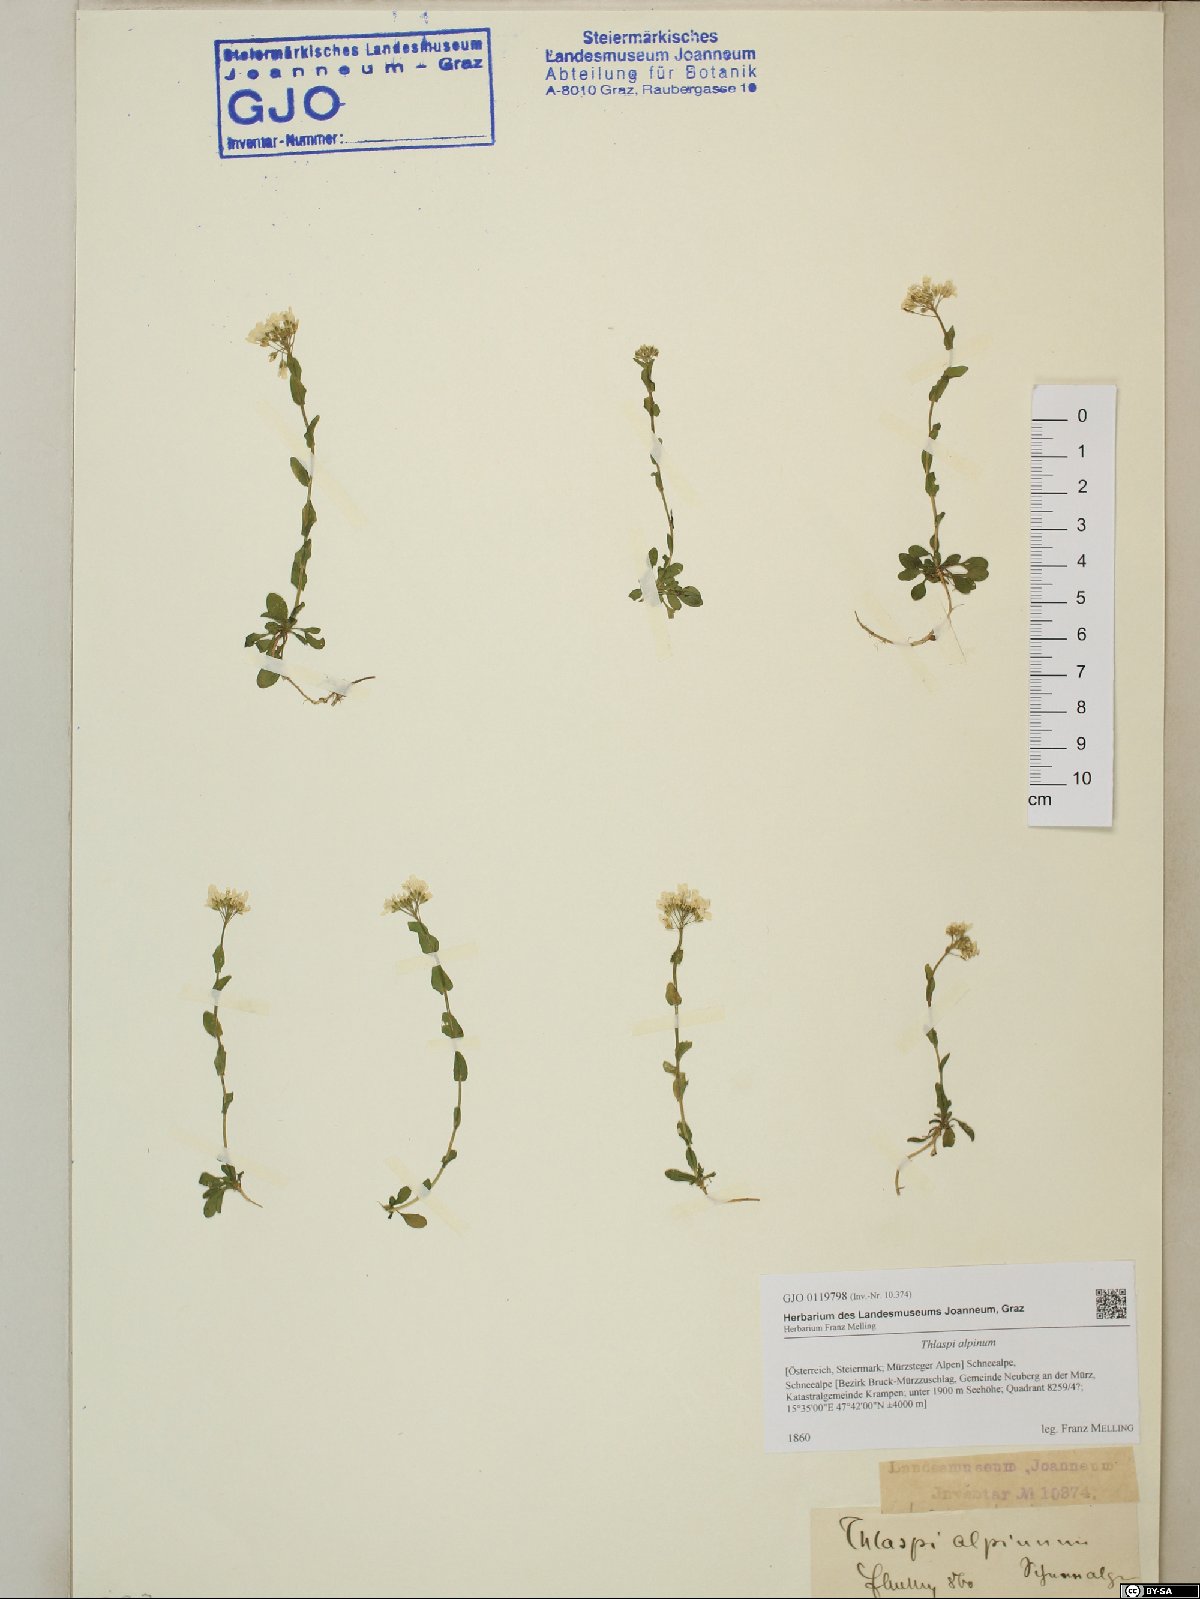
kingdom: Plantae
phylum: Tracheophyta
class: Magnoliopsida
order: Brassicales
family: Brassicaceae
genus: Noccaea
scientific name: Noccaea alpestris
